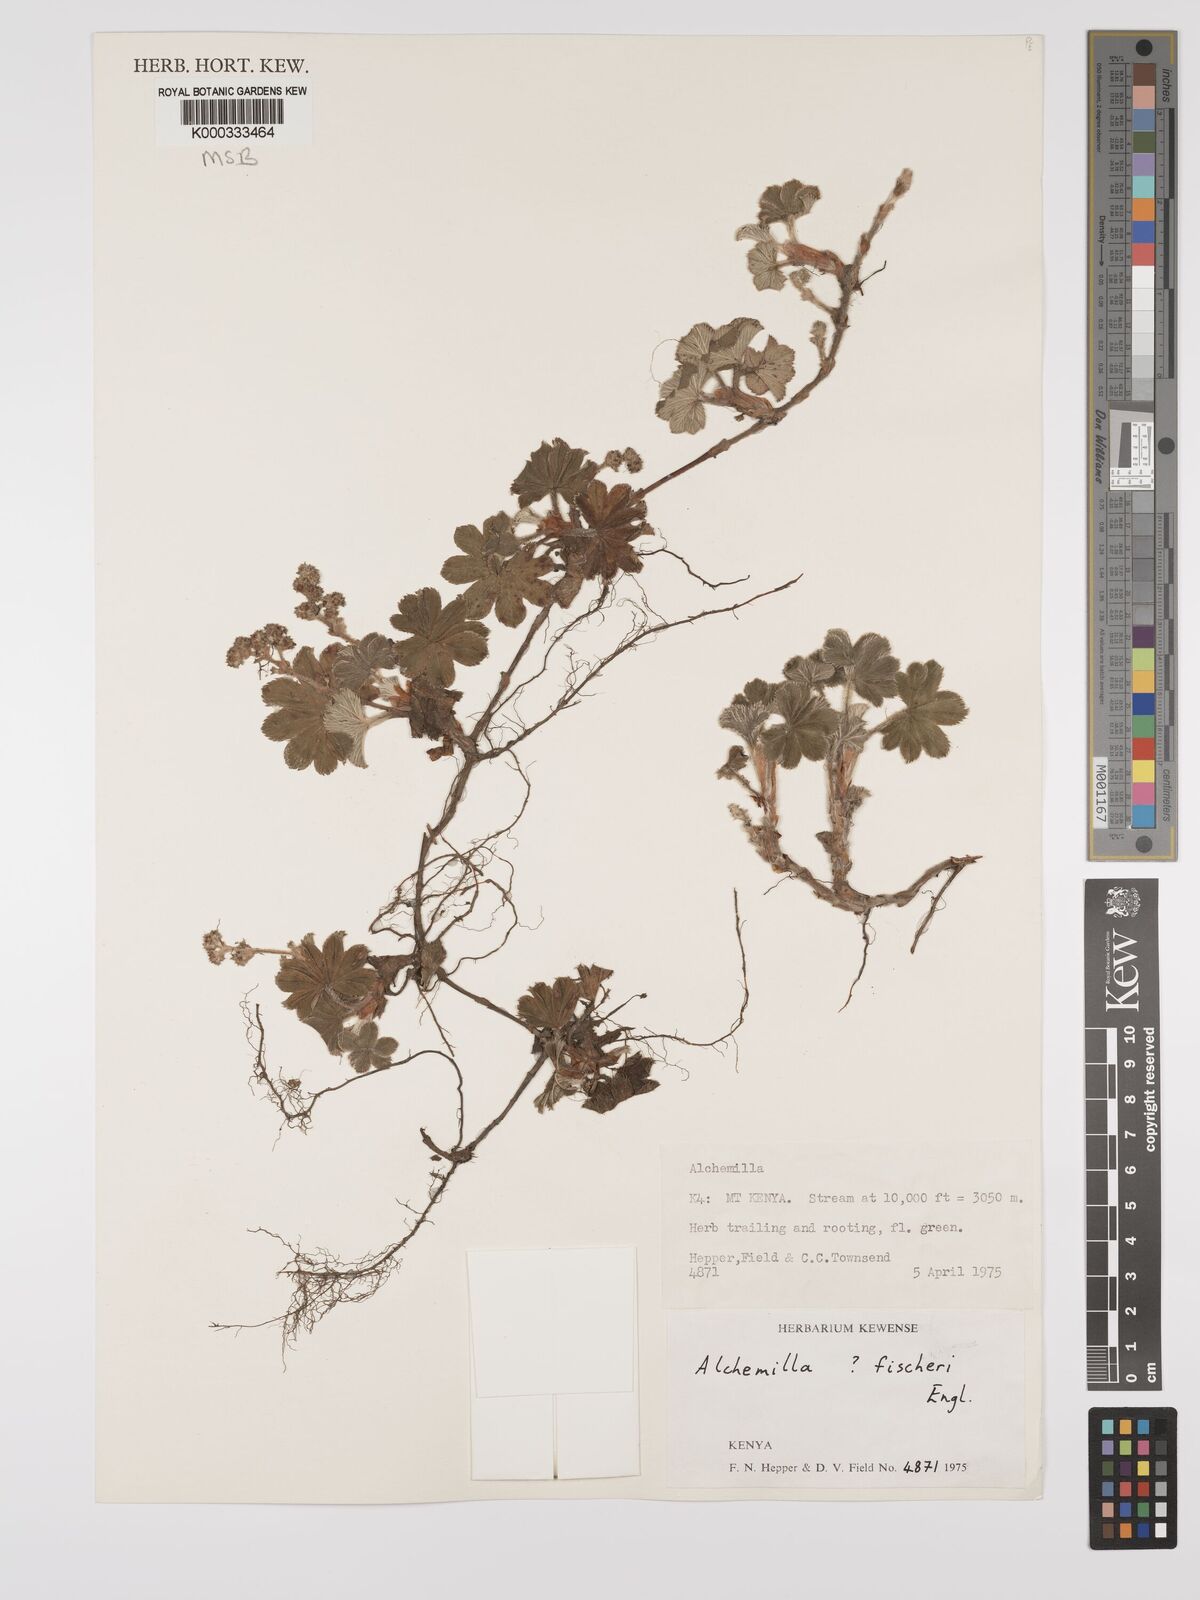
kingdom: Plantae
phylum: Tracheophyta
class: Magnoliopsida
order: Rosales
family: Rosaceae
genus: Alchemilla
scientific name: Alchemilla fischeri
